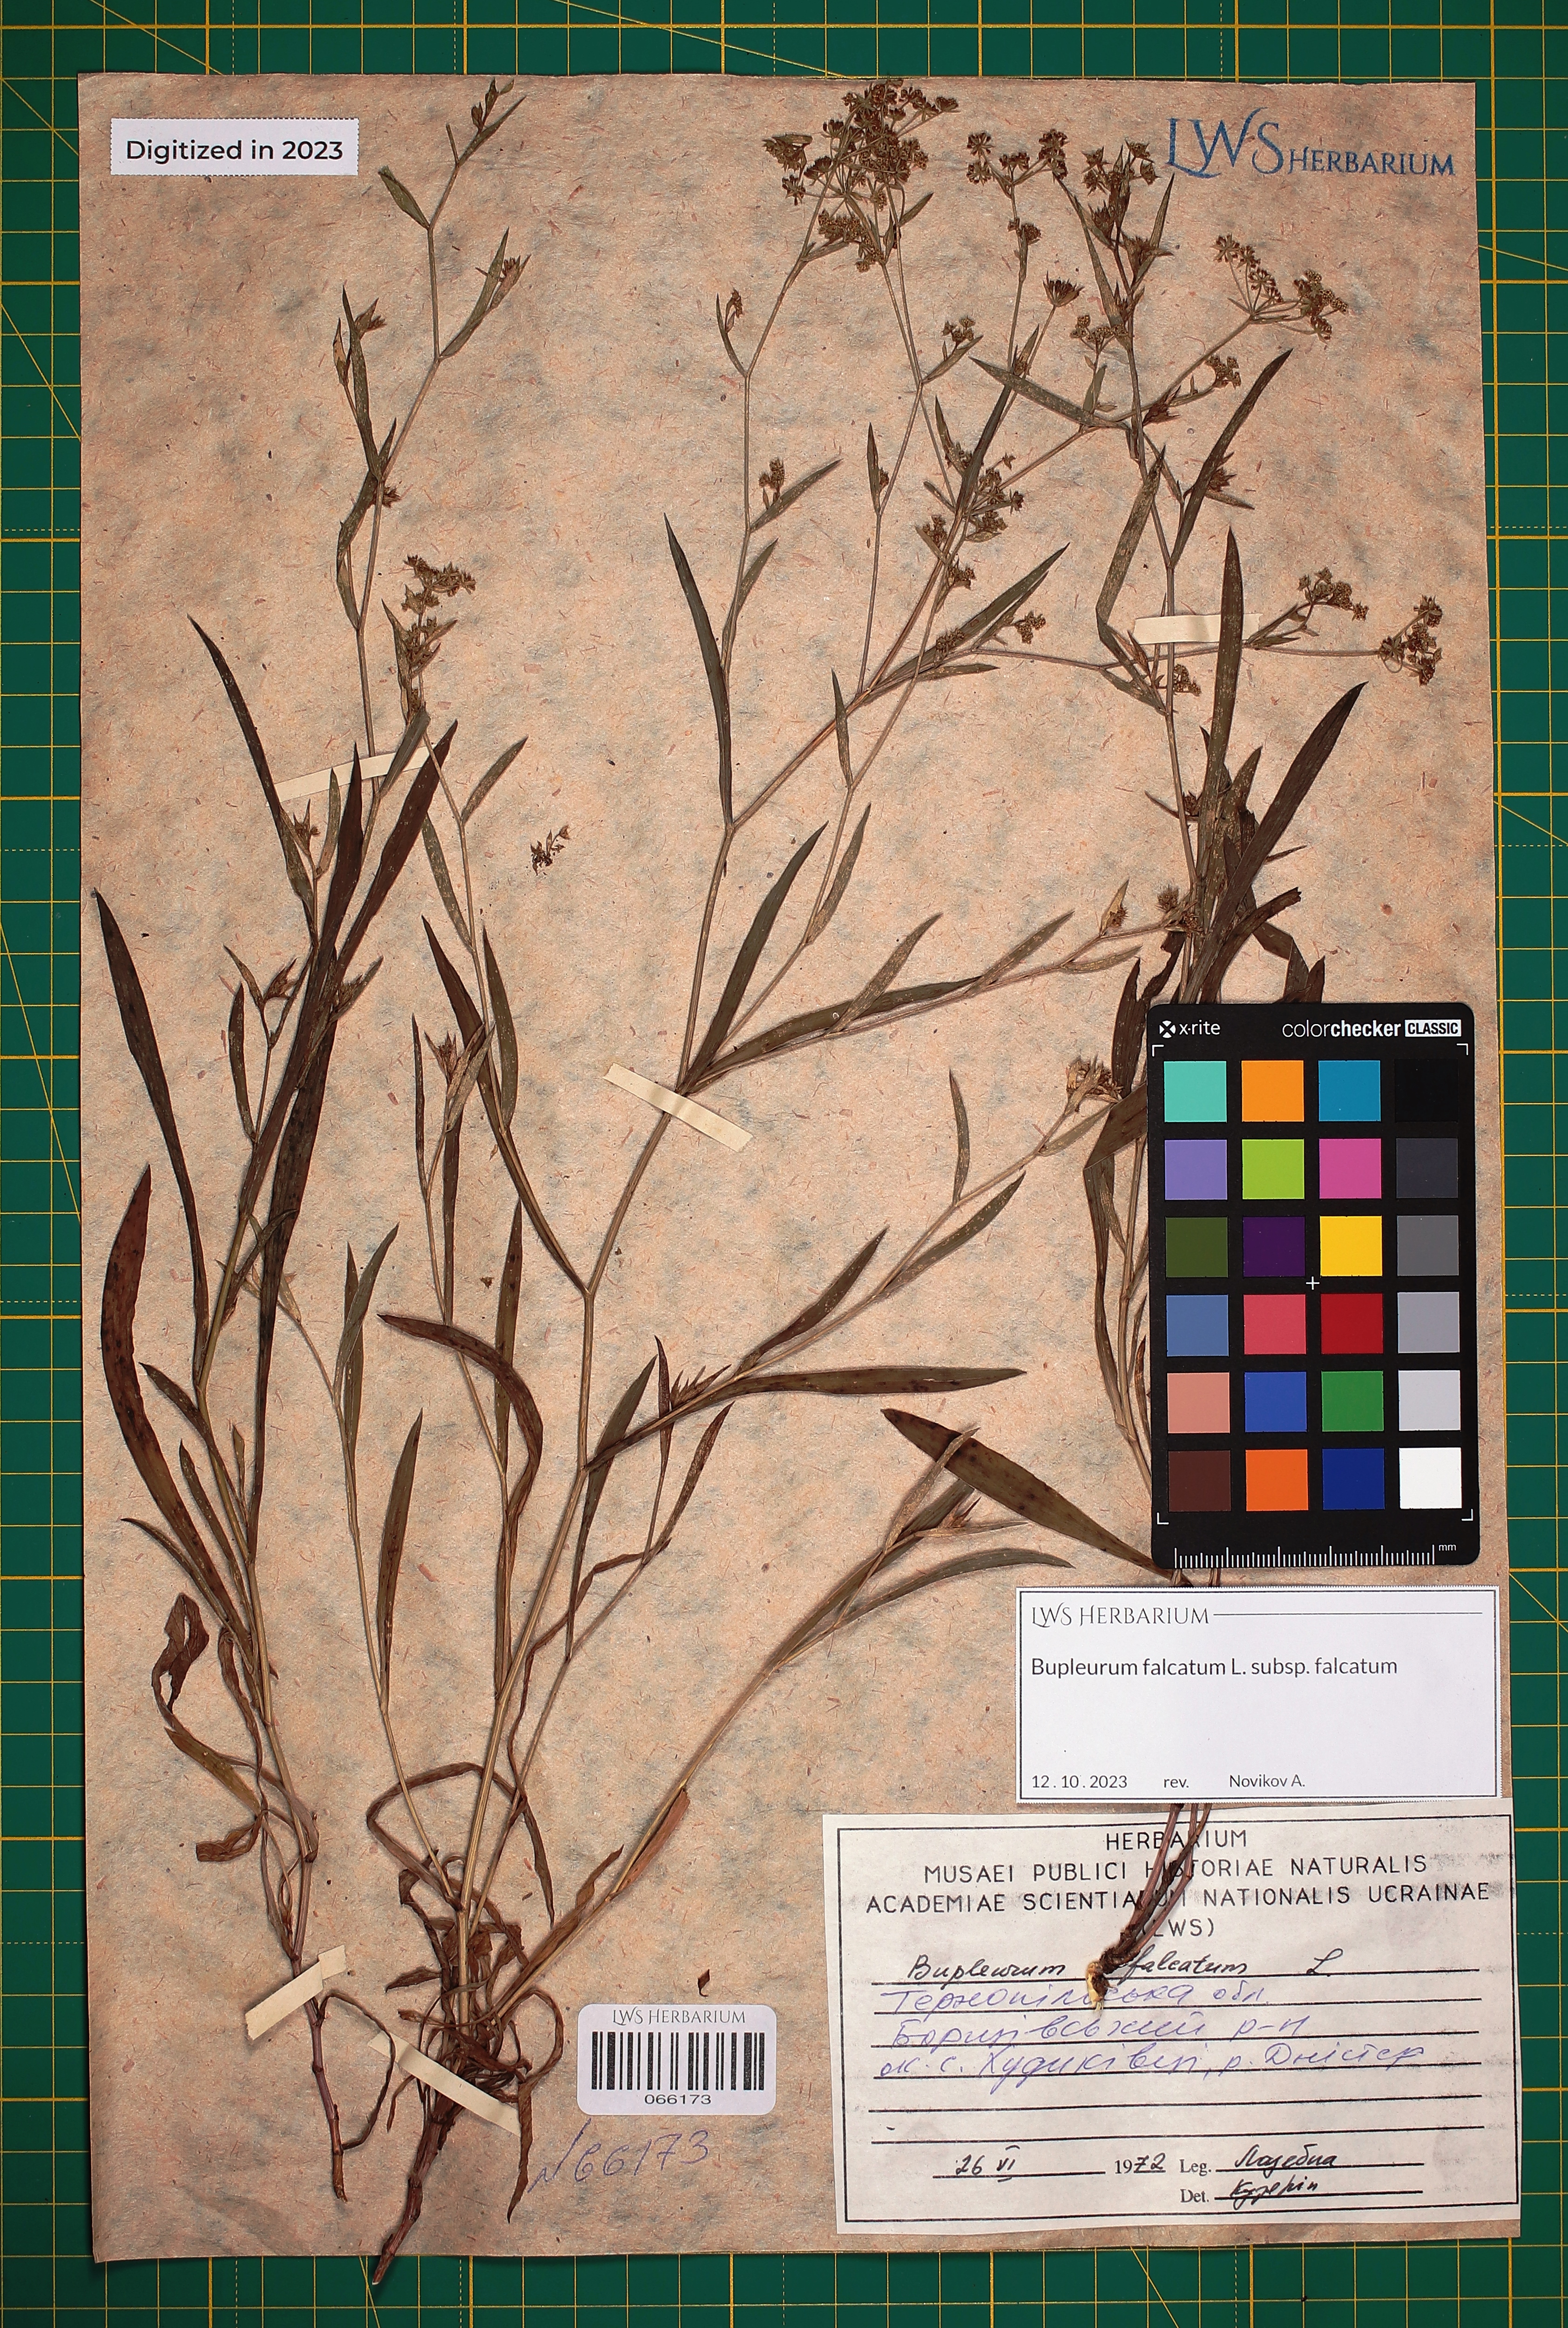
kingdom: Plantae
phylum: Tracheophyta
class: Magnoliopsida
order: Apiales
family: Apiaceae
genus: Bupleurum
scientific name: Bupleurum falcatum
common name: Sickle-leaved hare's-ear
